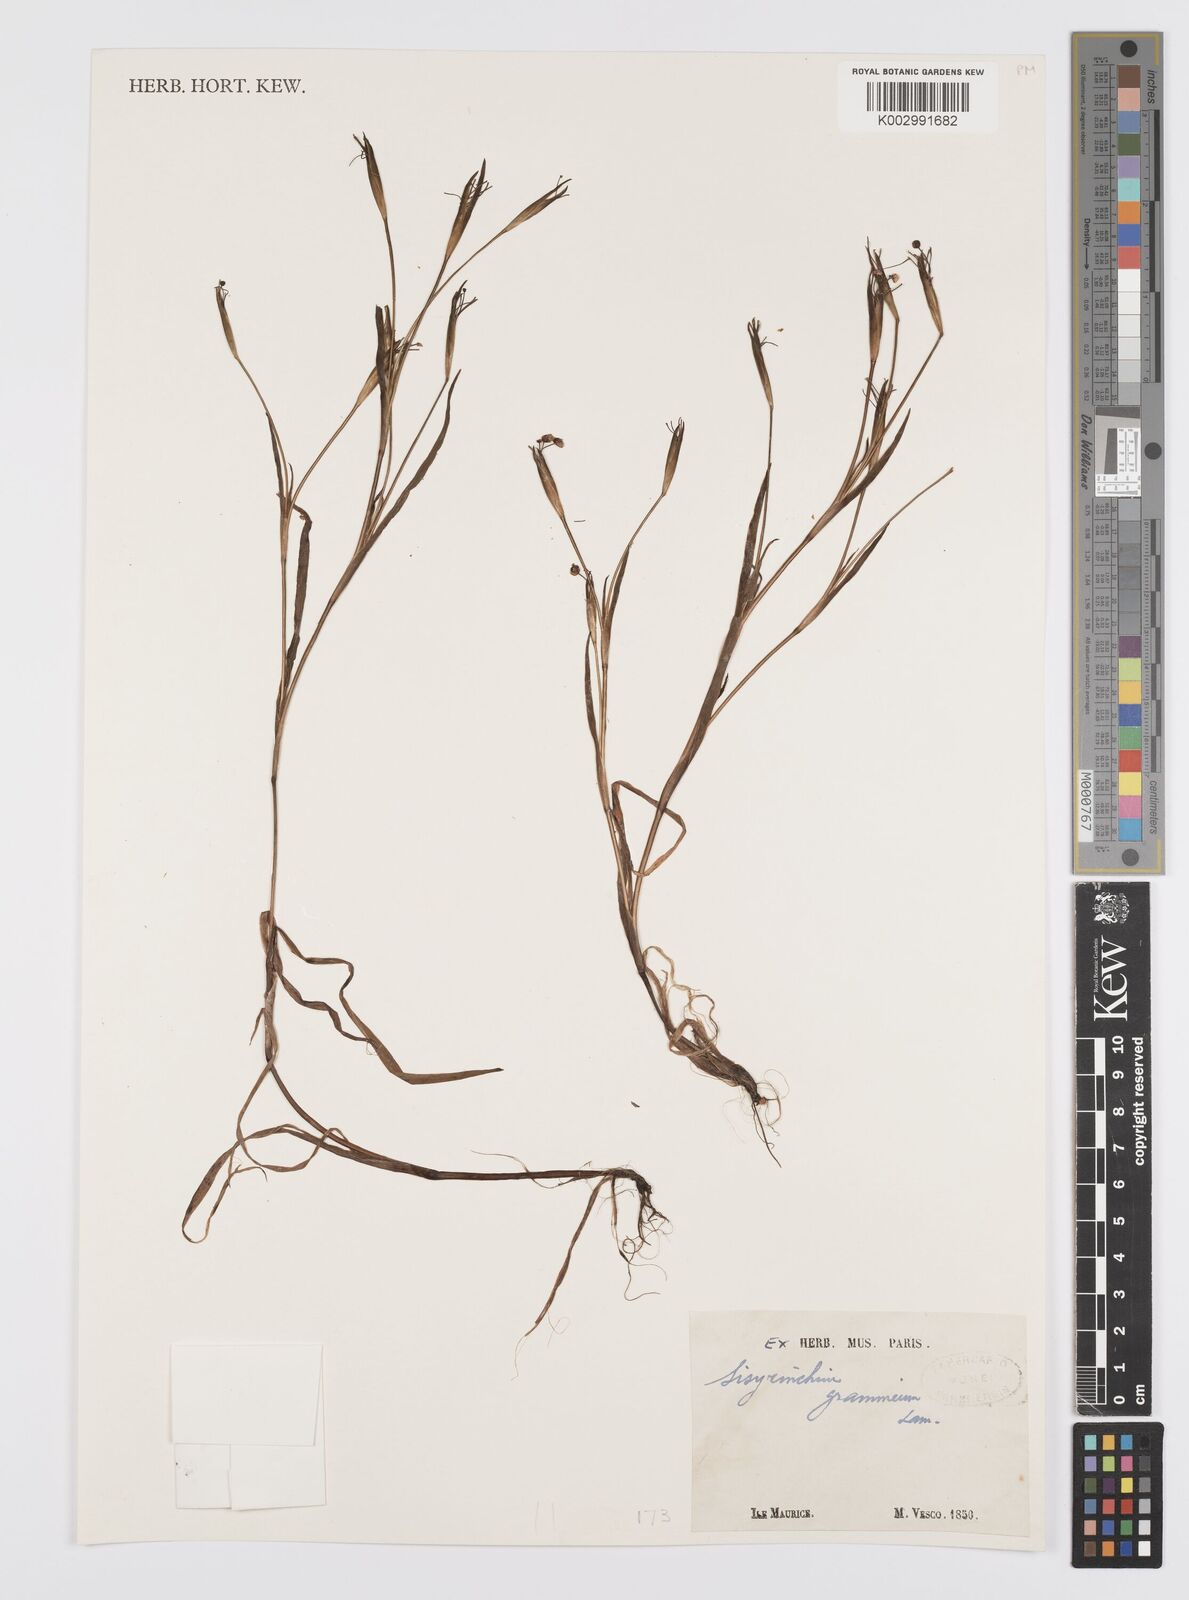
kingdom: Plantae
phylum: Tracheophyta
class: Liliopsida
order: Asparagales
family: Iridaceae
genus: Sisyrinchium
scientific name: Sisyrinchium micranthum
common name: Bermuda pigroot
